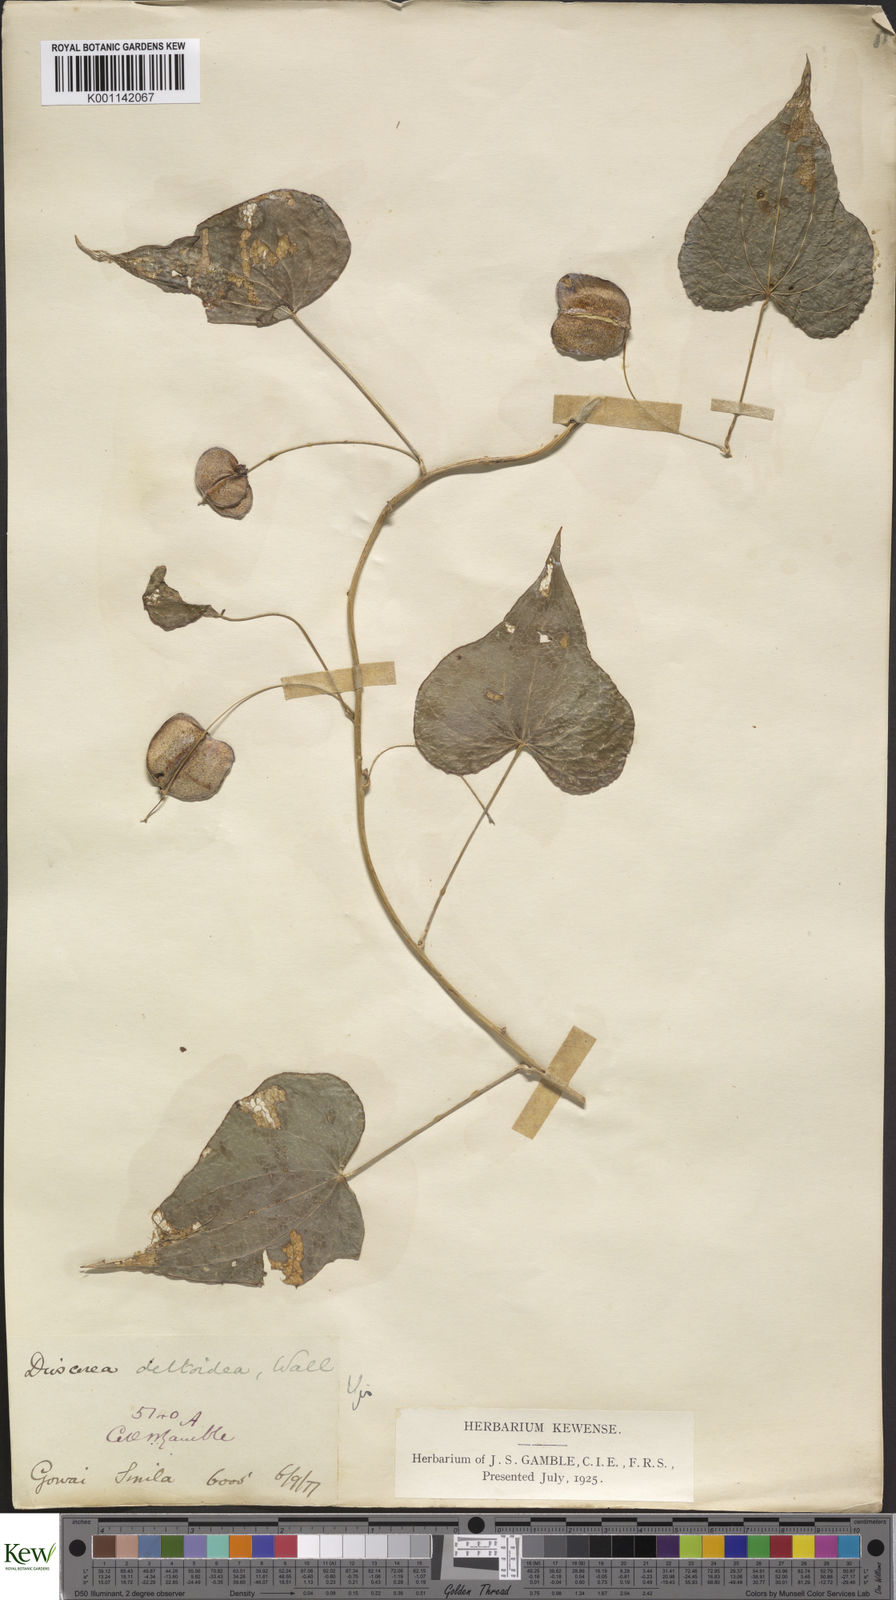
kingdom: Plantae
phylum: Tracheophyta
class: Liliopsida
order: Dioscoreales
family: Dioscoreaceae
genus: Dioscorea
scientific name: Dioscorea deltoidea
